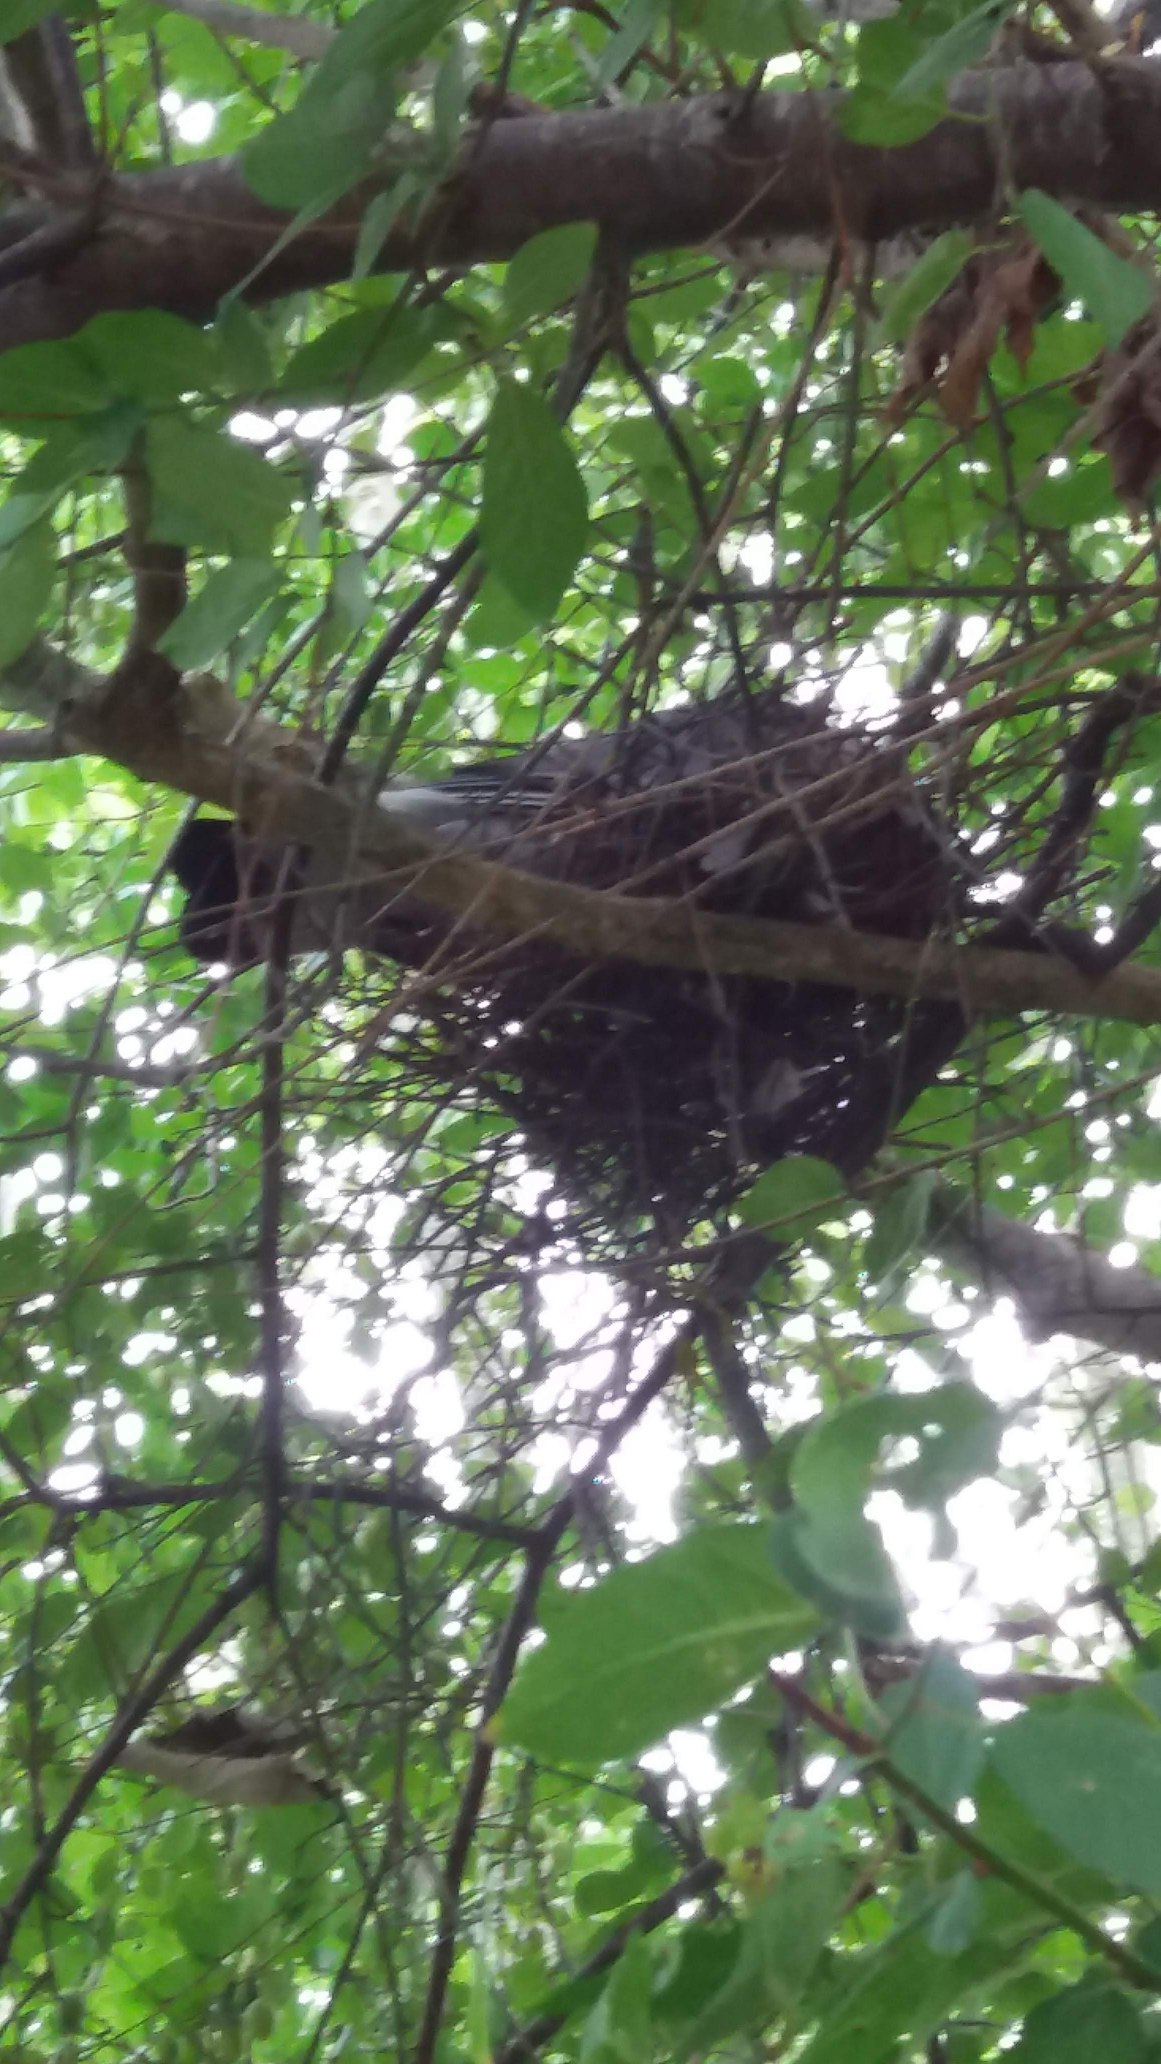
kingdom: Animalia
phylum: Chordata
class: Aves
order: Columbiformes
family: Columbidae
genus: Columba
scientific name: Columba palumbus
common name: Ringdue
